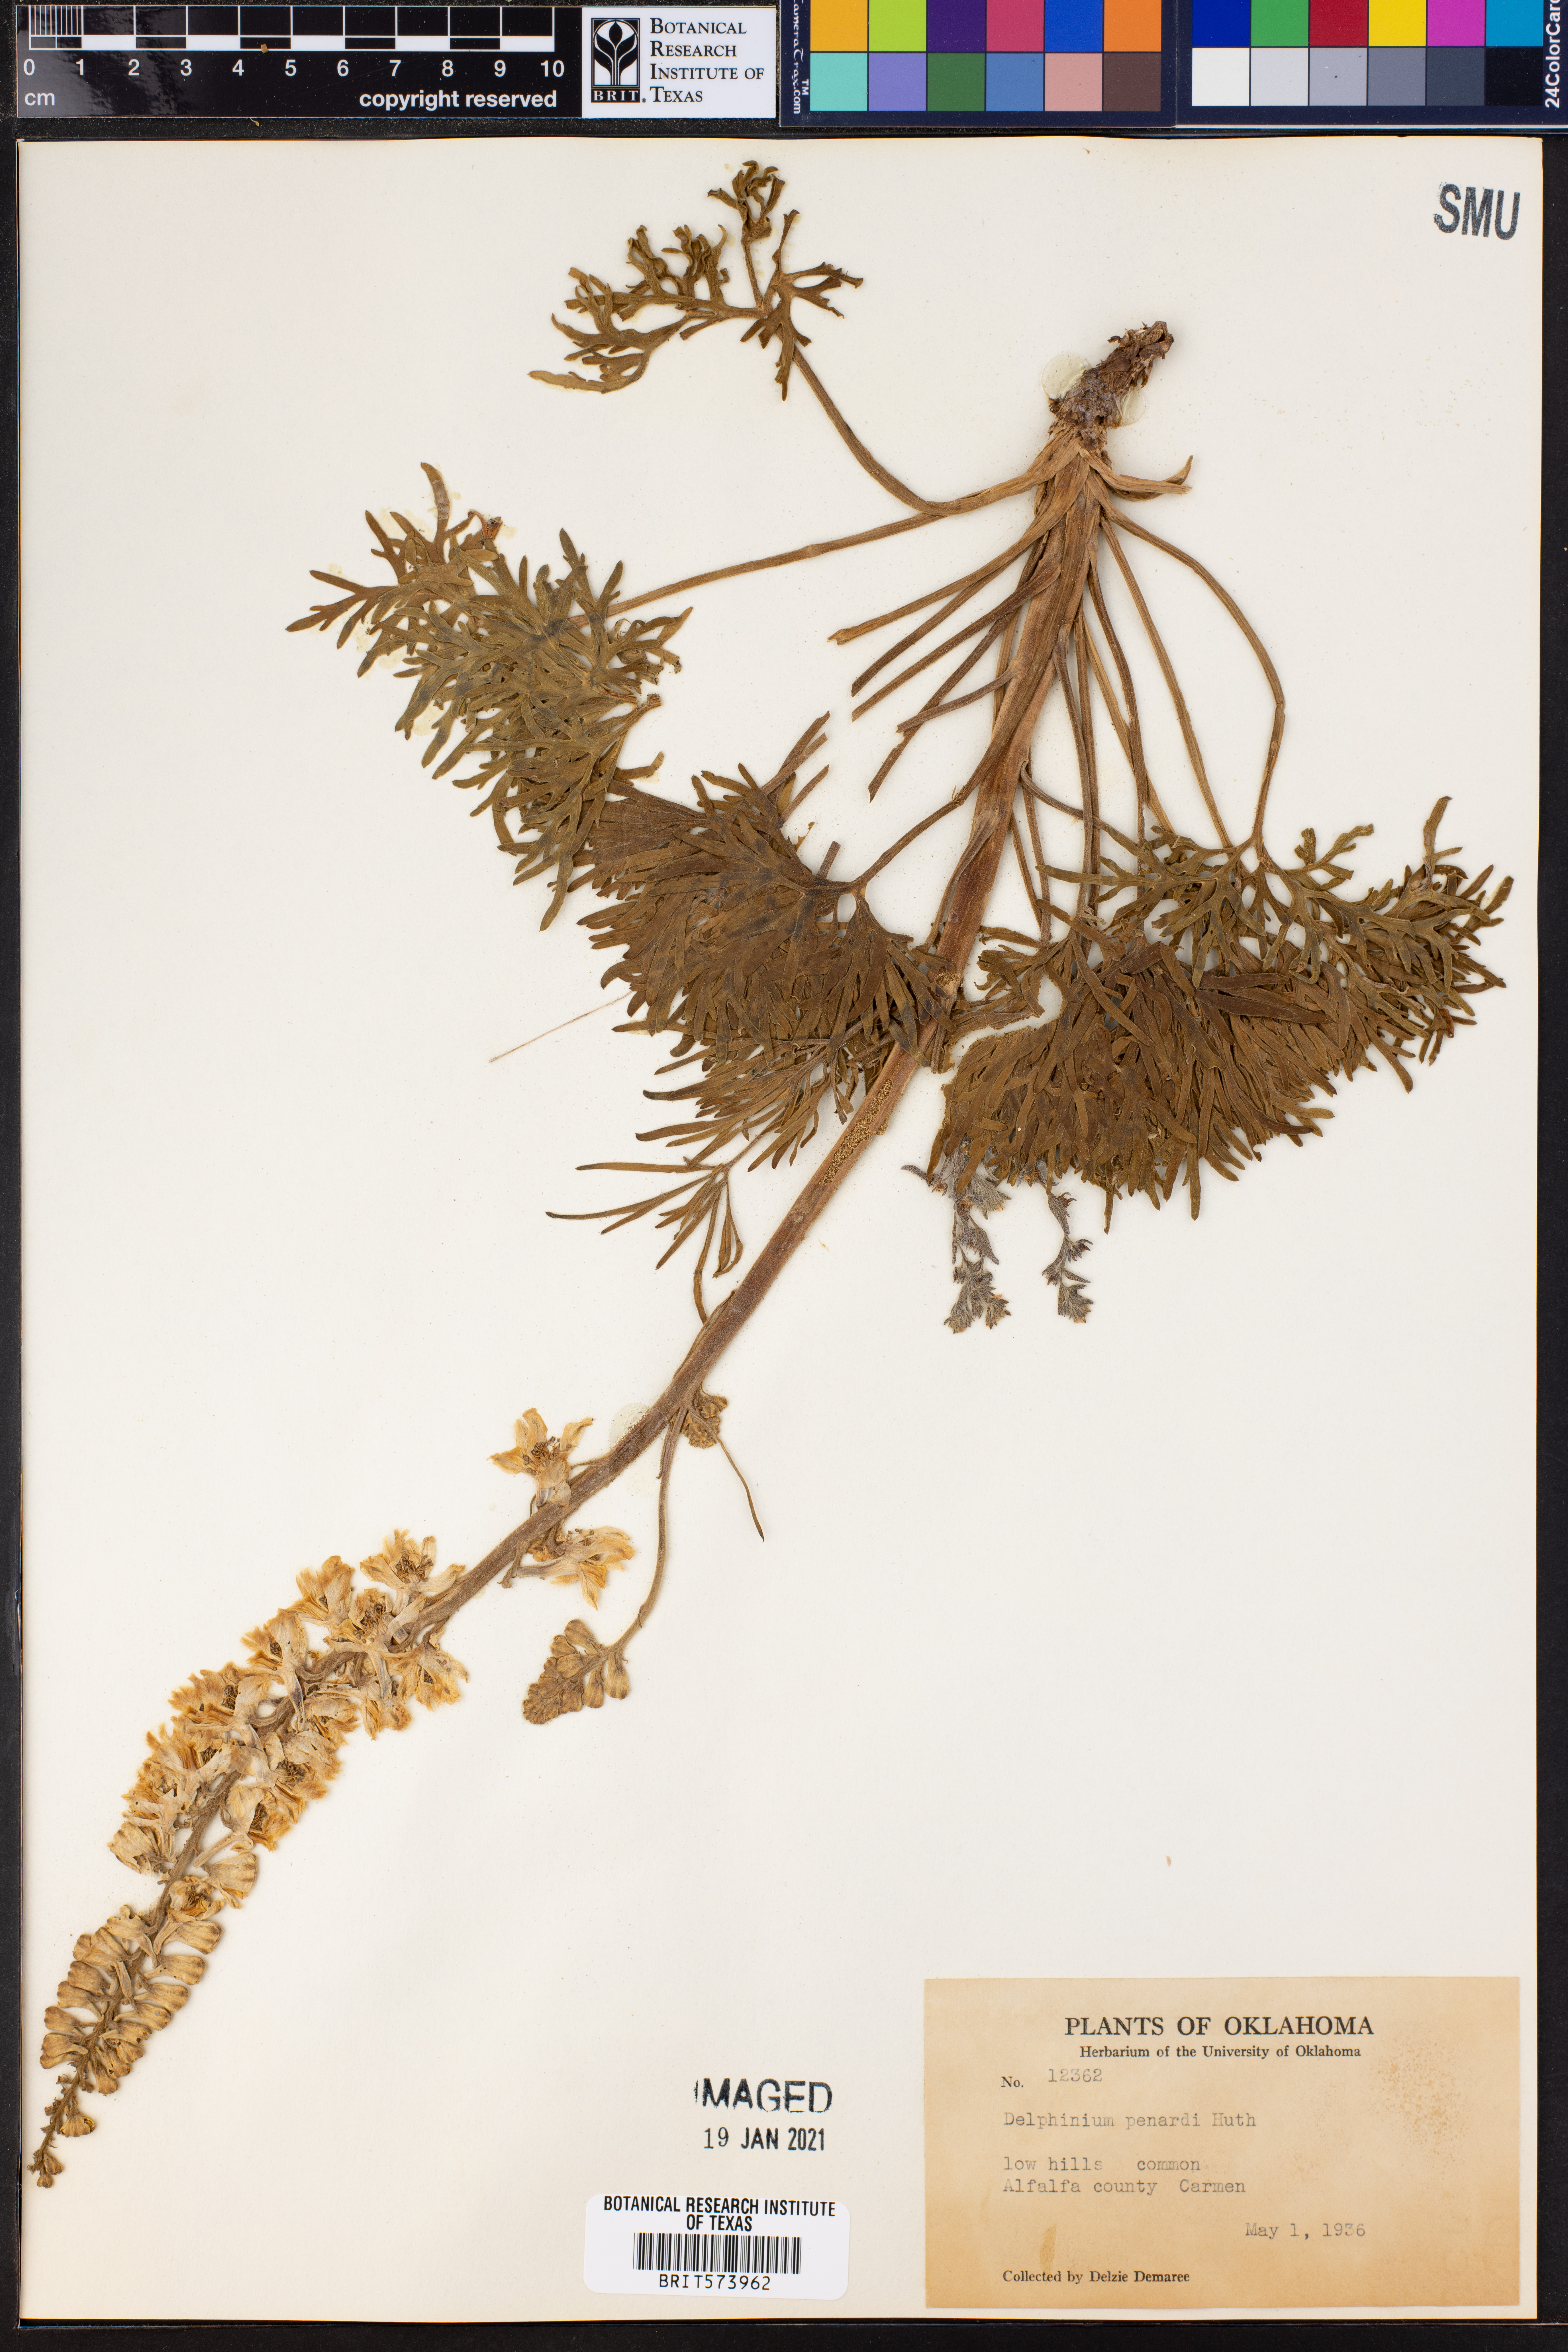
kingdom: Plantae
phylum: Tracheophyta
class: Magnoliopsida
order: Ranunculales
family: Ranunculaceae
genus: Delphinium
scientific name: Delphinium carolinianum
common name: Carolina larkspur
